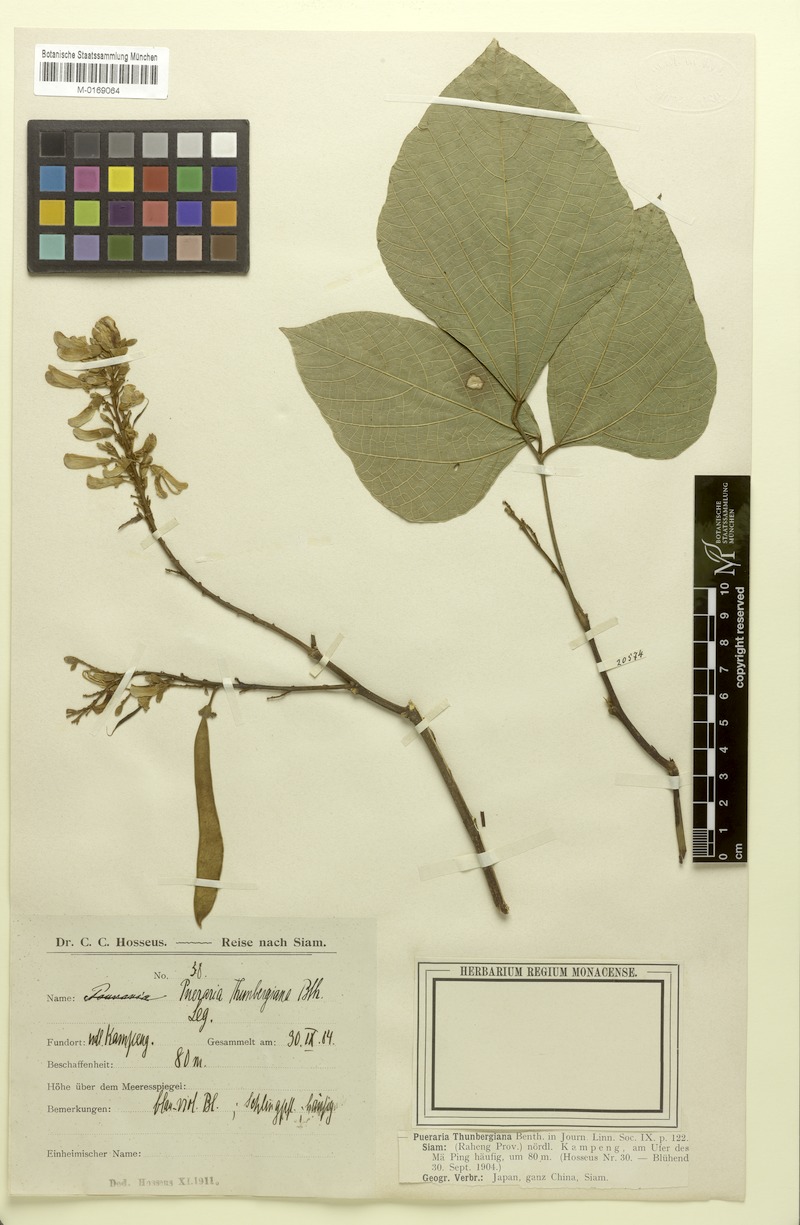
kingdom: Plantae
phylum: Tracheophyta
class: Magnoliopsida
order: Fabales
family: Fabaceae
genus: Pueraria
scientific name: Pueraria montana
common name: Kudzu
